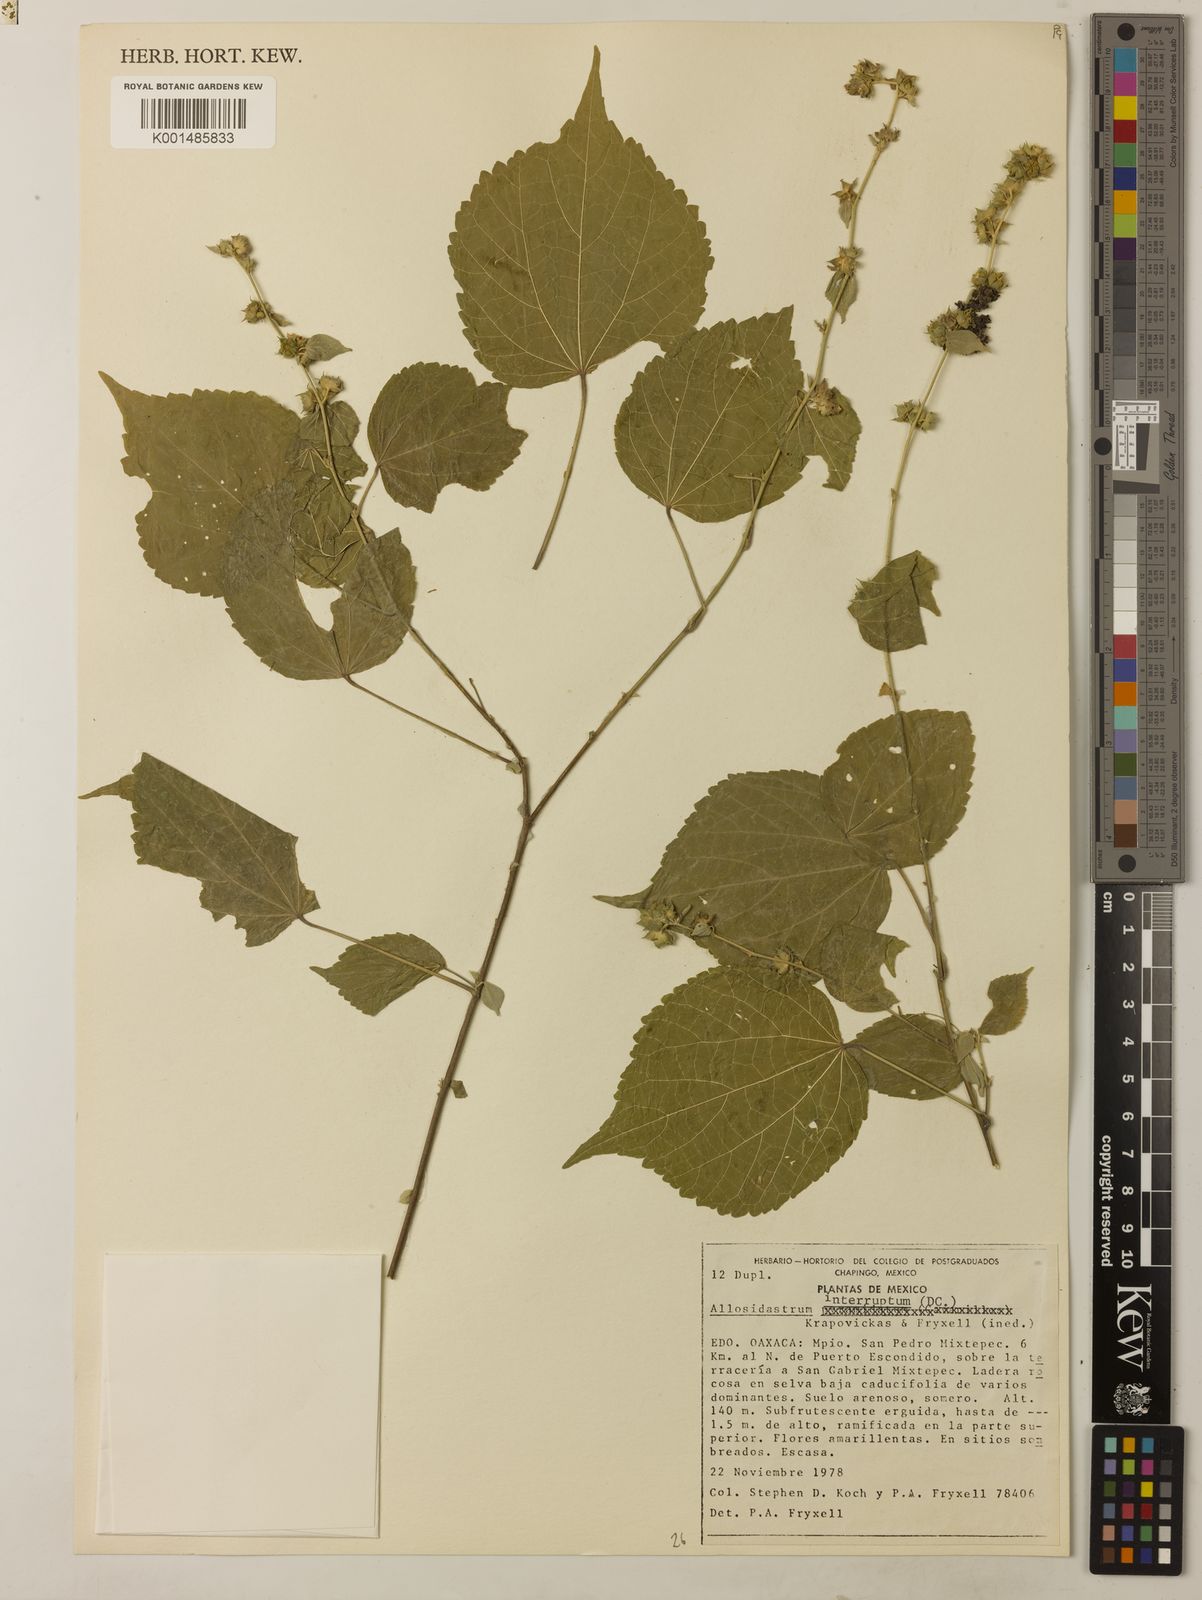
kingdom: Plantae
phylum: Tracheophyta
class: Magnoliopsida
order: Malvales
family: Malvaceae
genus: Allosidastrum
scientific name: Allosidastrum interruptum
